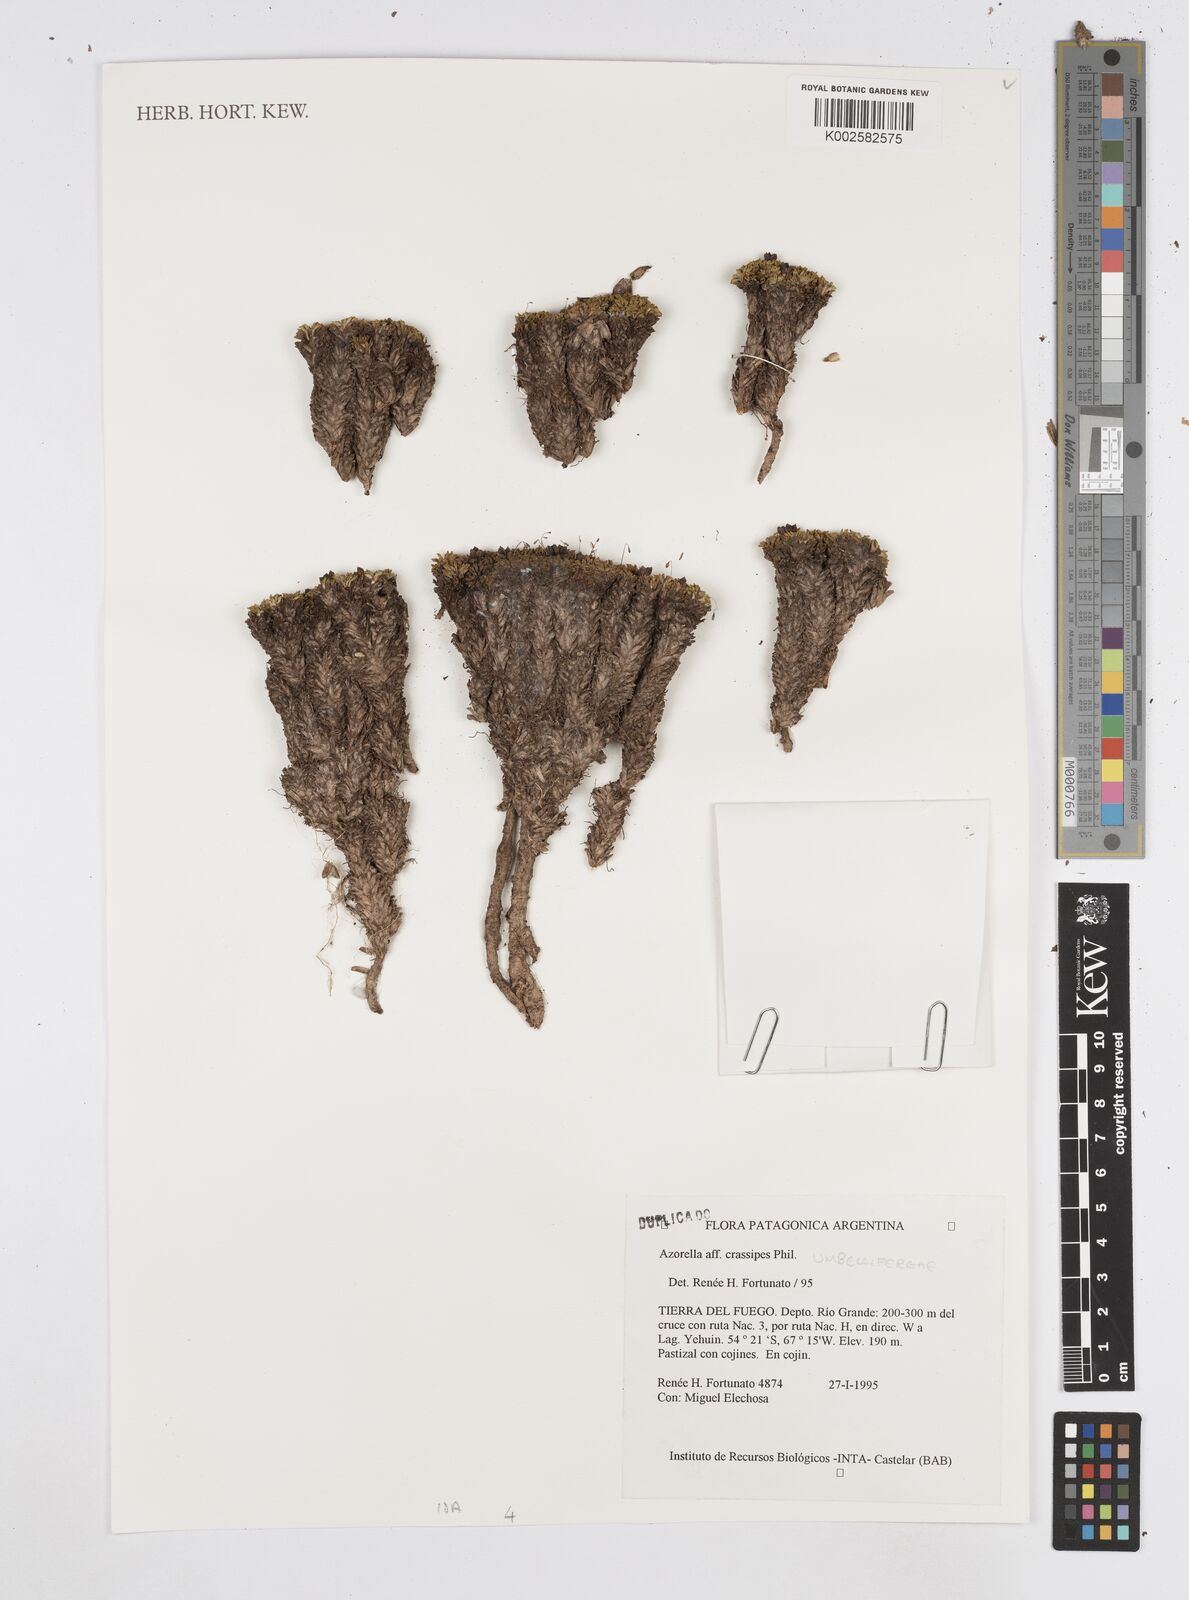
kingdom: Plantae
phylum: Tracheophyta
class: Magnoliopsida
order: Apiales
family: Apiaceae
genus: Azorella
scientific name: Azorella crassipes
